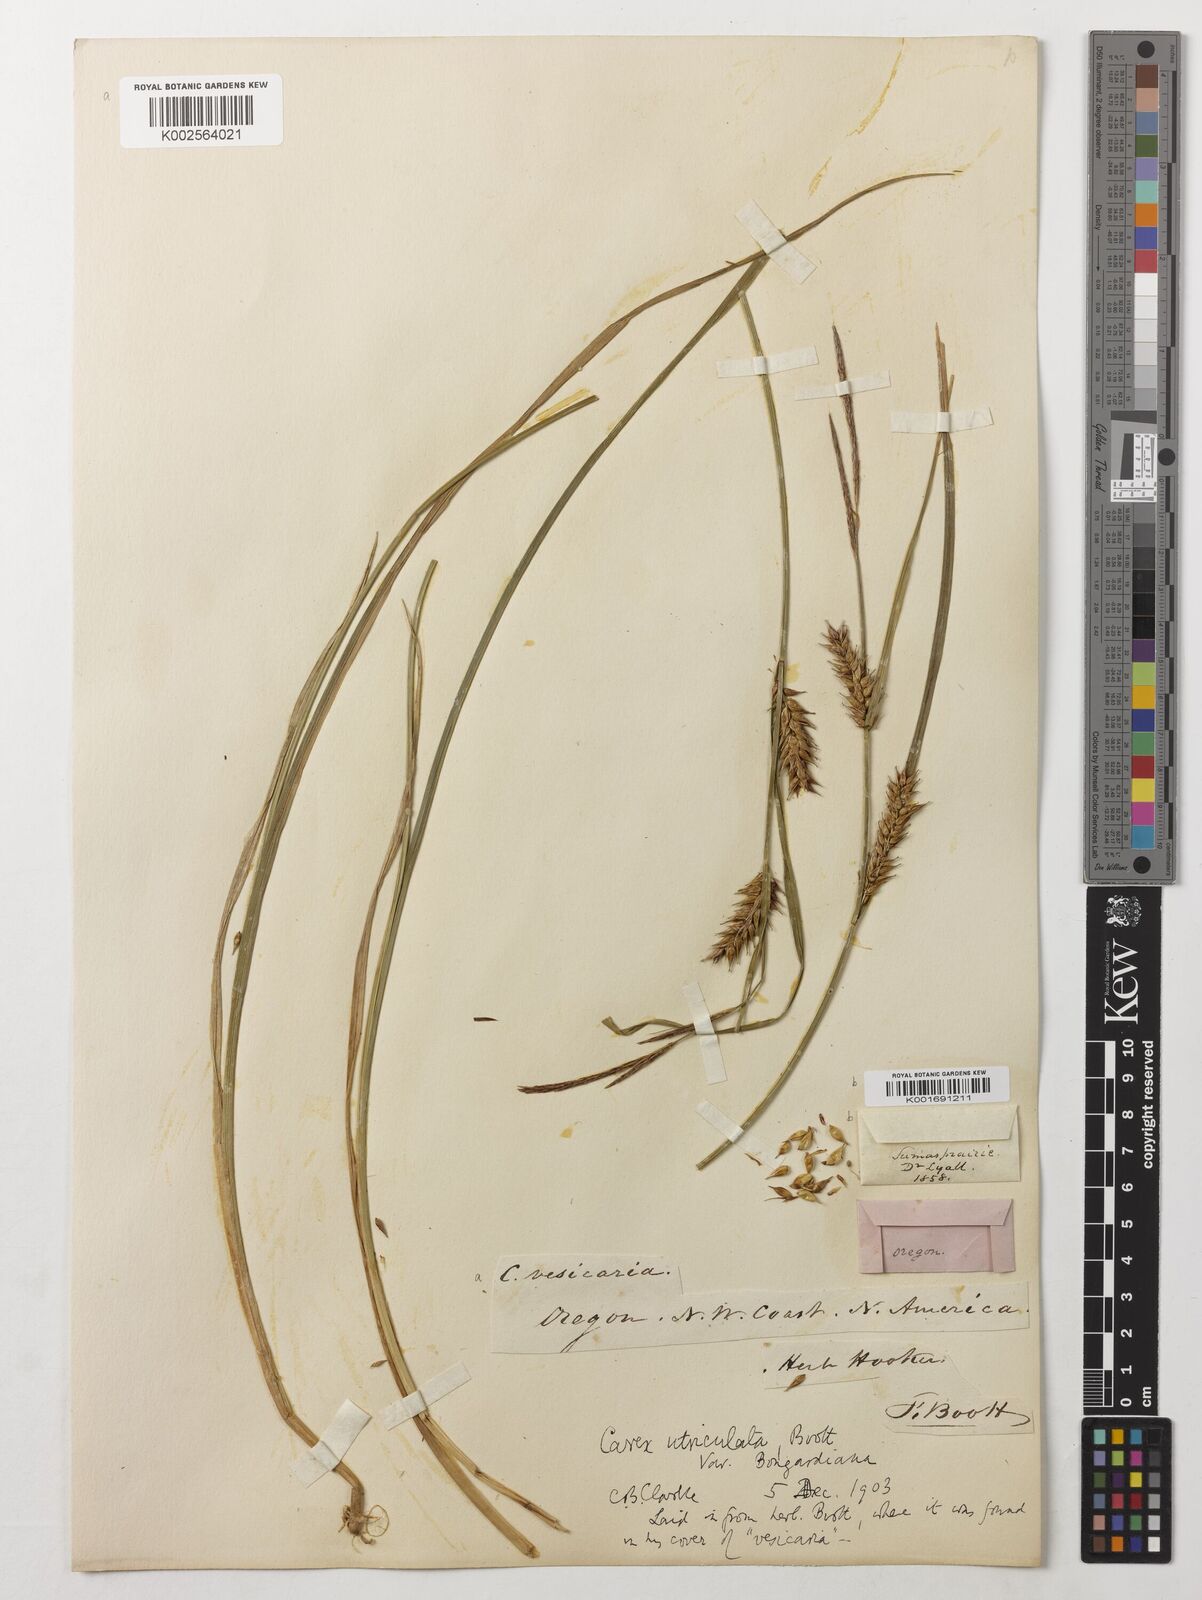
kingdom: Plantae
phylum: Tracheophyta
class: Liliopsida
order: Poales
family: Cyperaceae
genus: Carex
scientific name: Carex utriculata
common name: Beaked sedge
